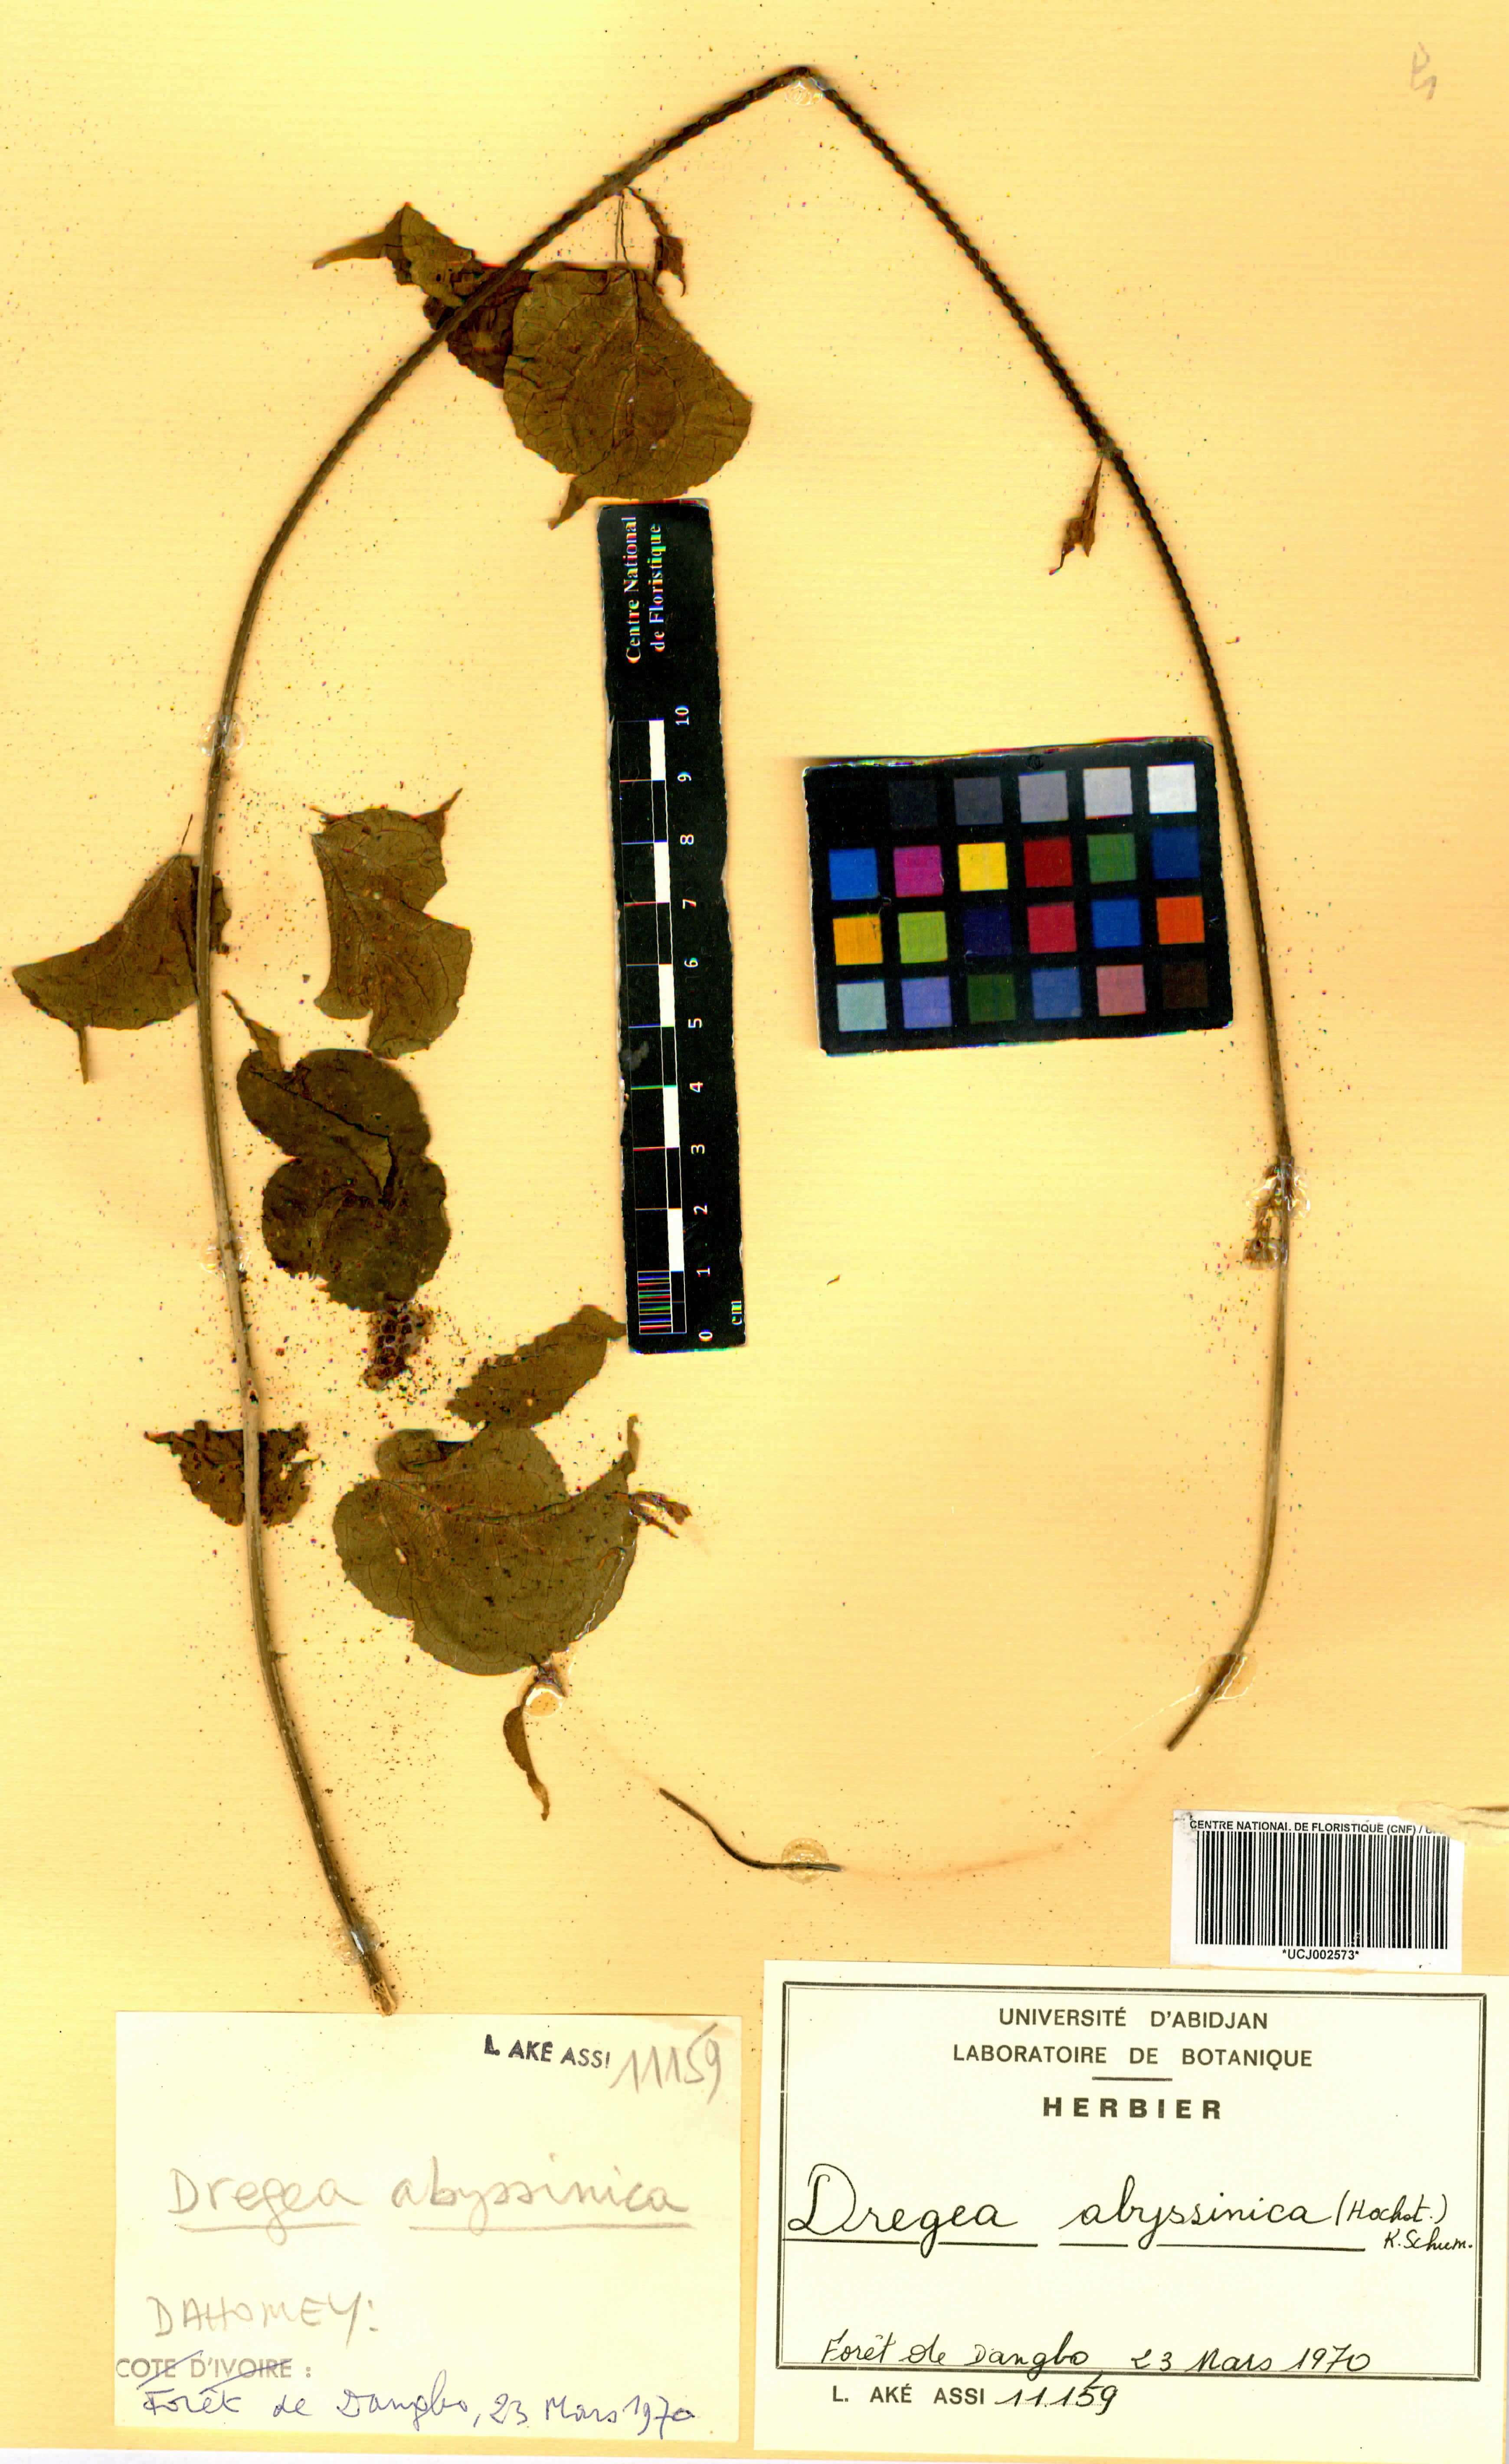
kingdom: Plantae
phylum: Tracheophyta
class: Magnoliopsida
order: Gentianales
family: Apocynaceae
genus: Stephanotis
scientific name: Stephanotis abyssinica
